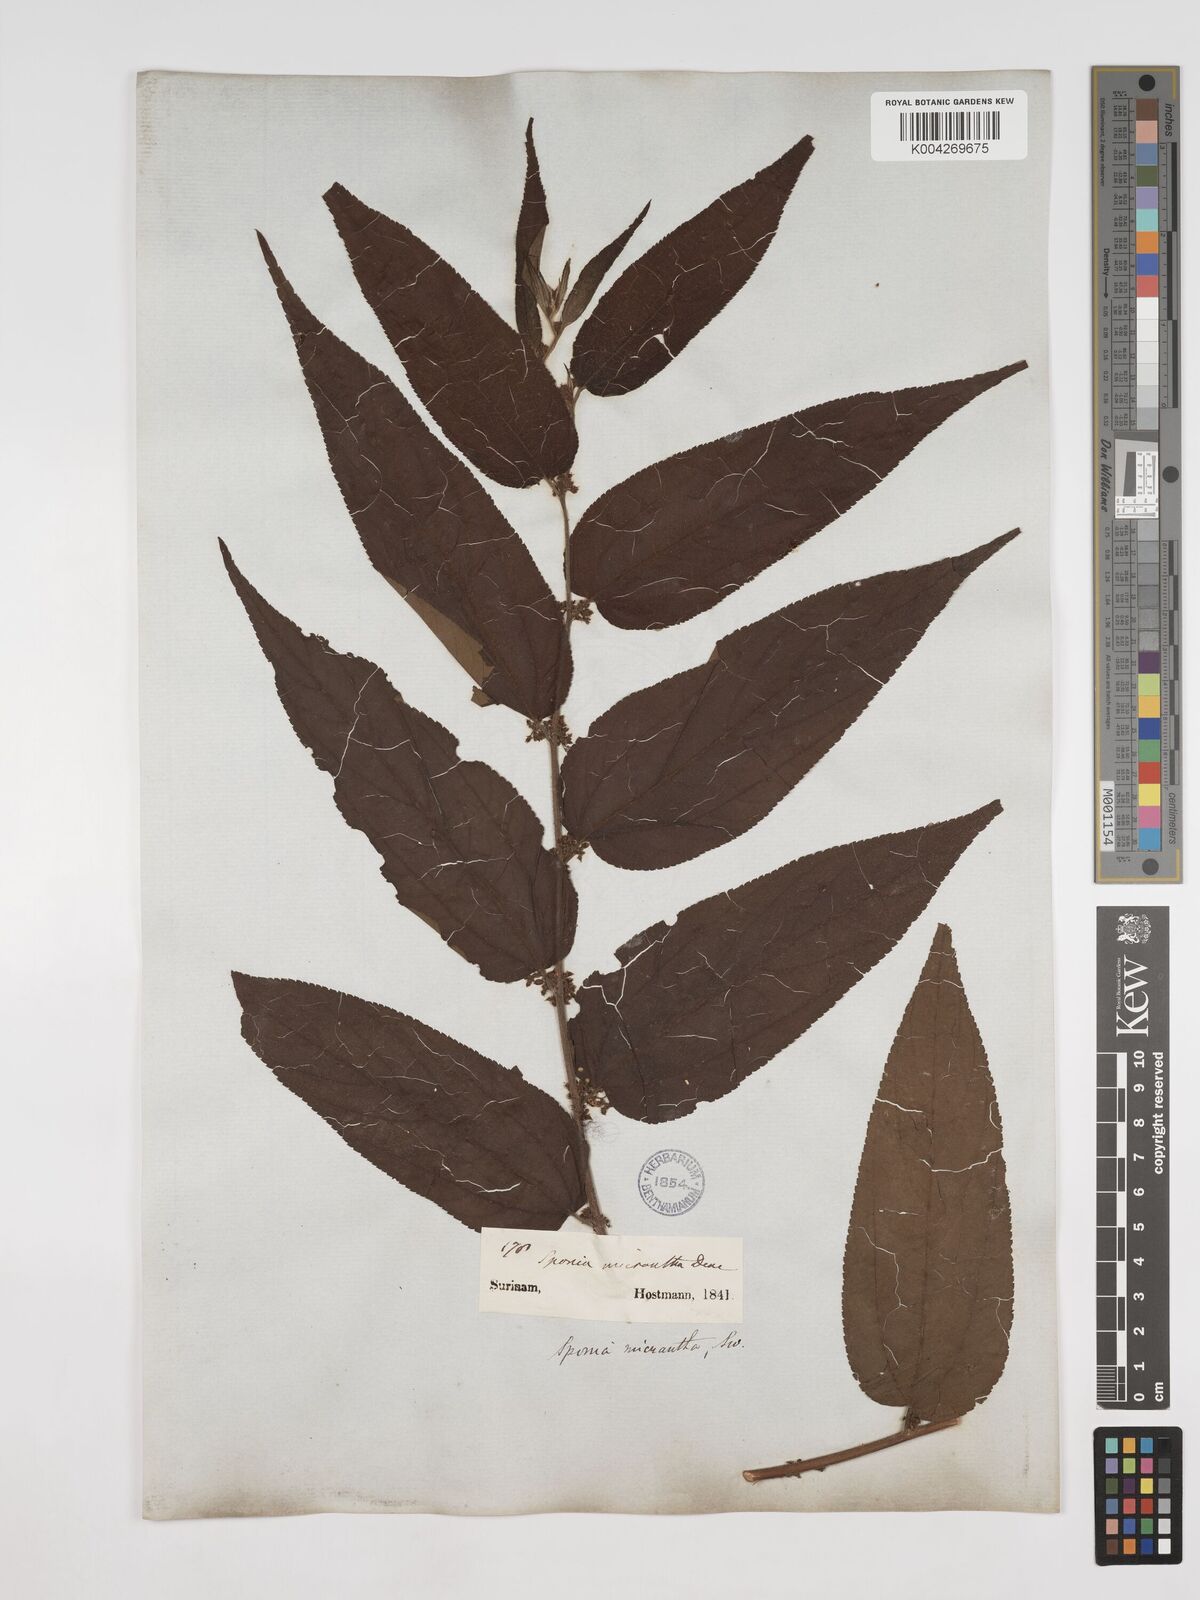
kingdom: Plantae
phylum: Tracheophyta
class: Magnoliopsida
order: Rosales
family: Cannabaceae
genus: Trema
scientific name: Trema micranthum
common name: Jamaican nettletree
